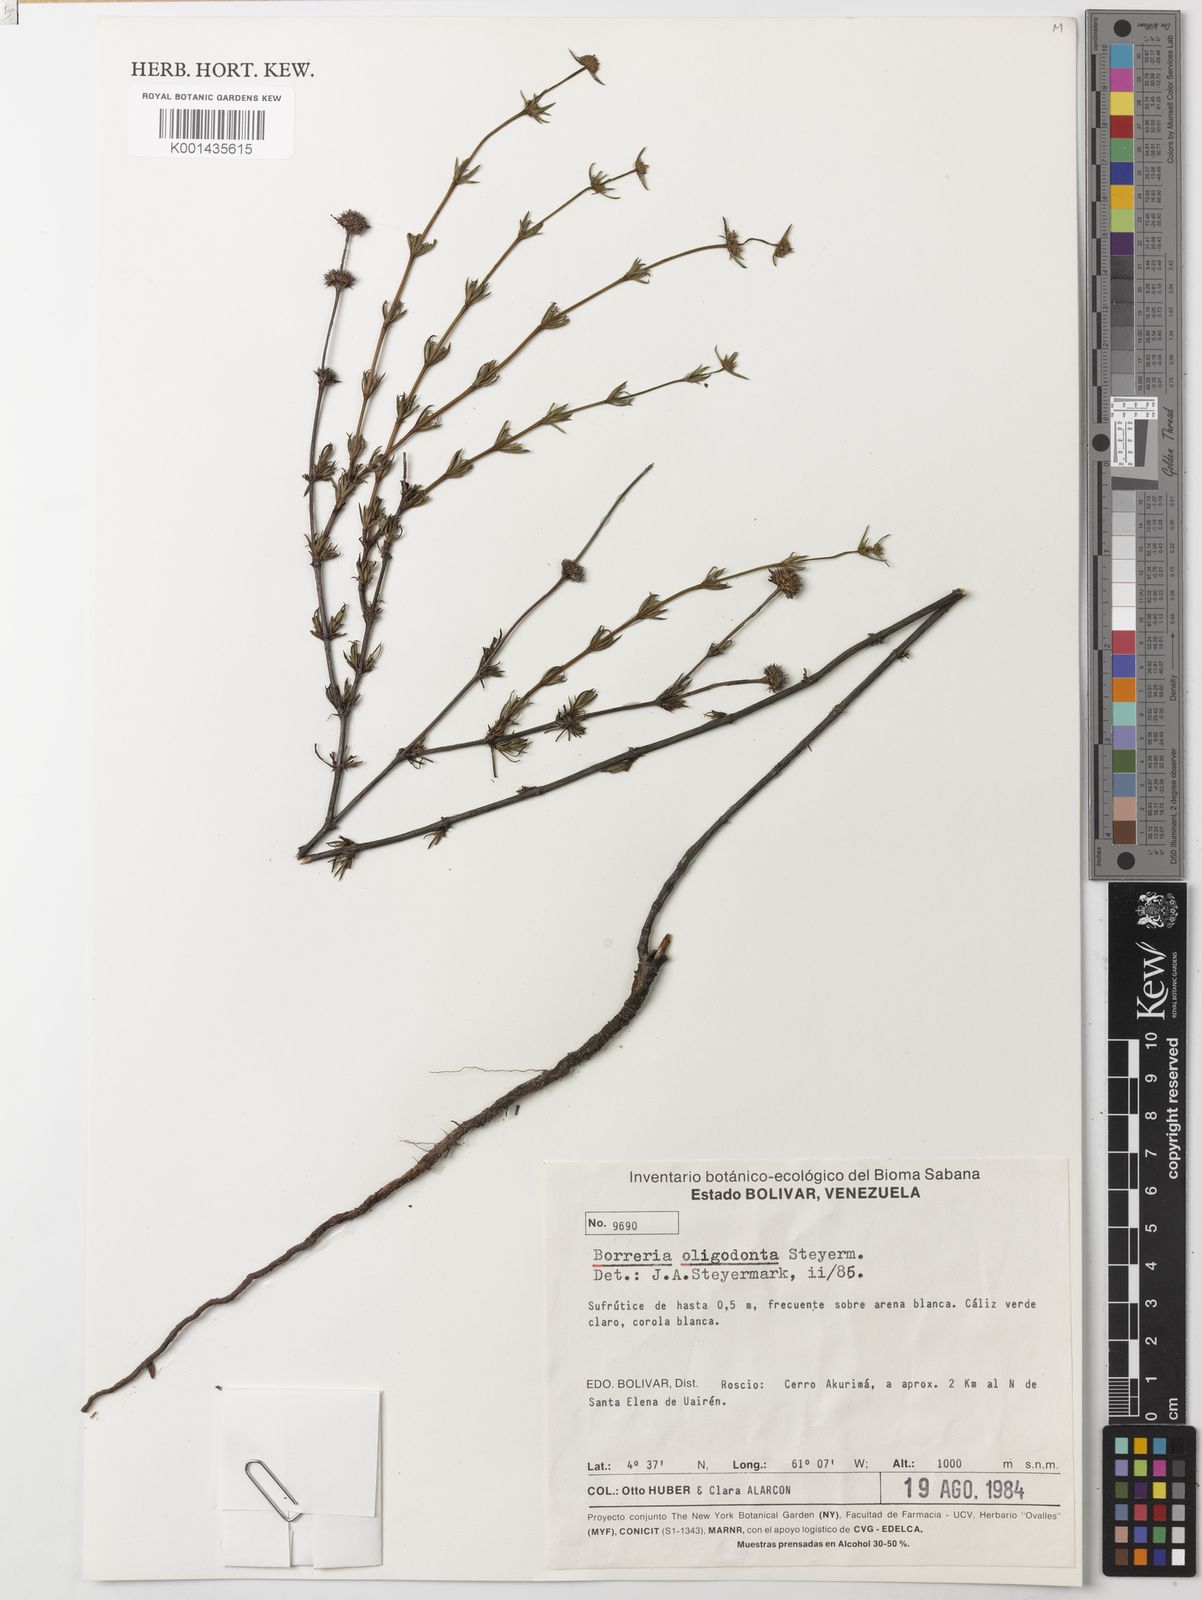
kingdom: Plantae
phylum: Tracheophyta
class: Magnoliopsida
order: Gentianales
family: Rubiaceae
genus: Spermacoce
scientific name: Spermacoce verticillata
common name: Shrubby false buttonweed
